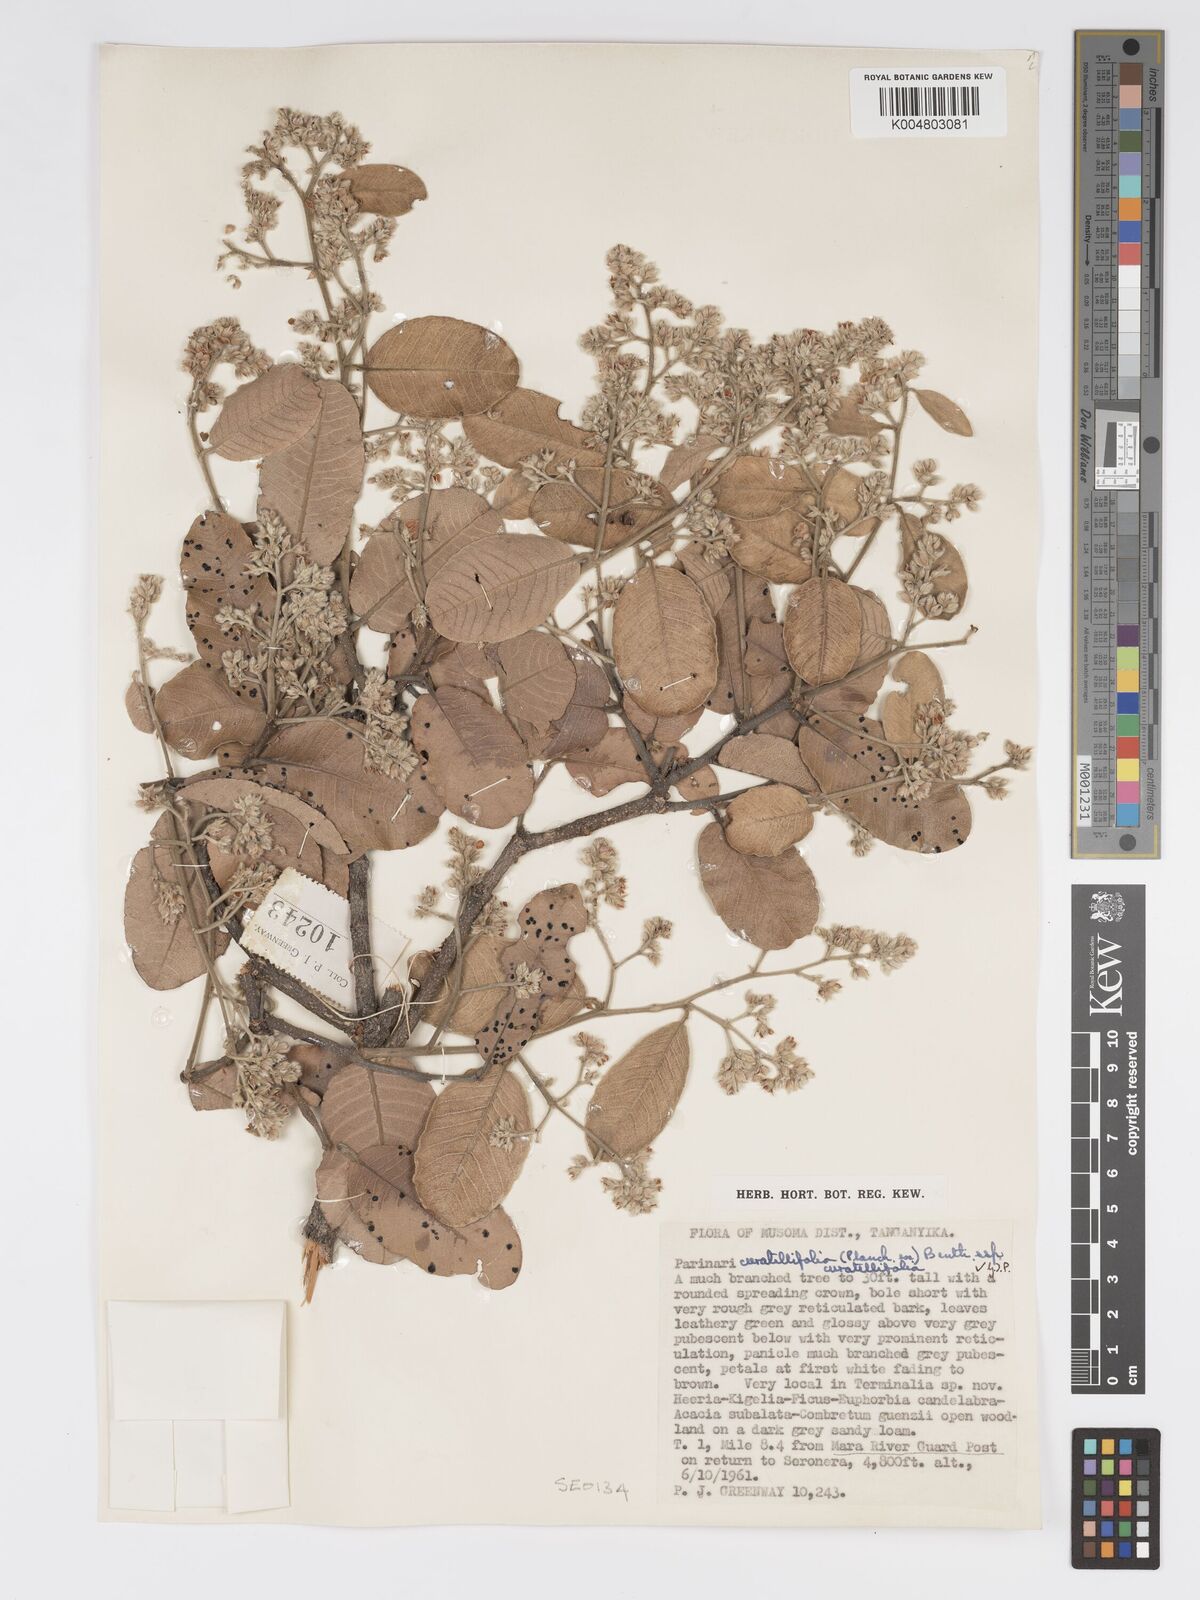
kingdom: Plantae
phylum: Tracheophyta
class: Magnoliopsida
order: Malpighiales
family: Chrysobalanaceae
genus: Parinari
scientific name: Parinari curatellifolia
